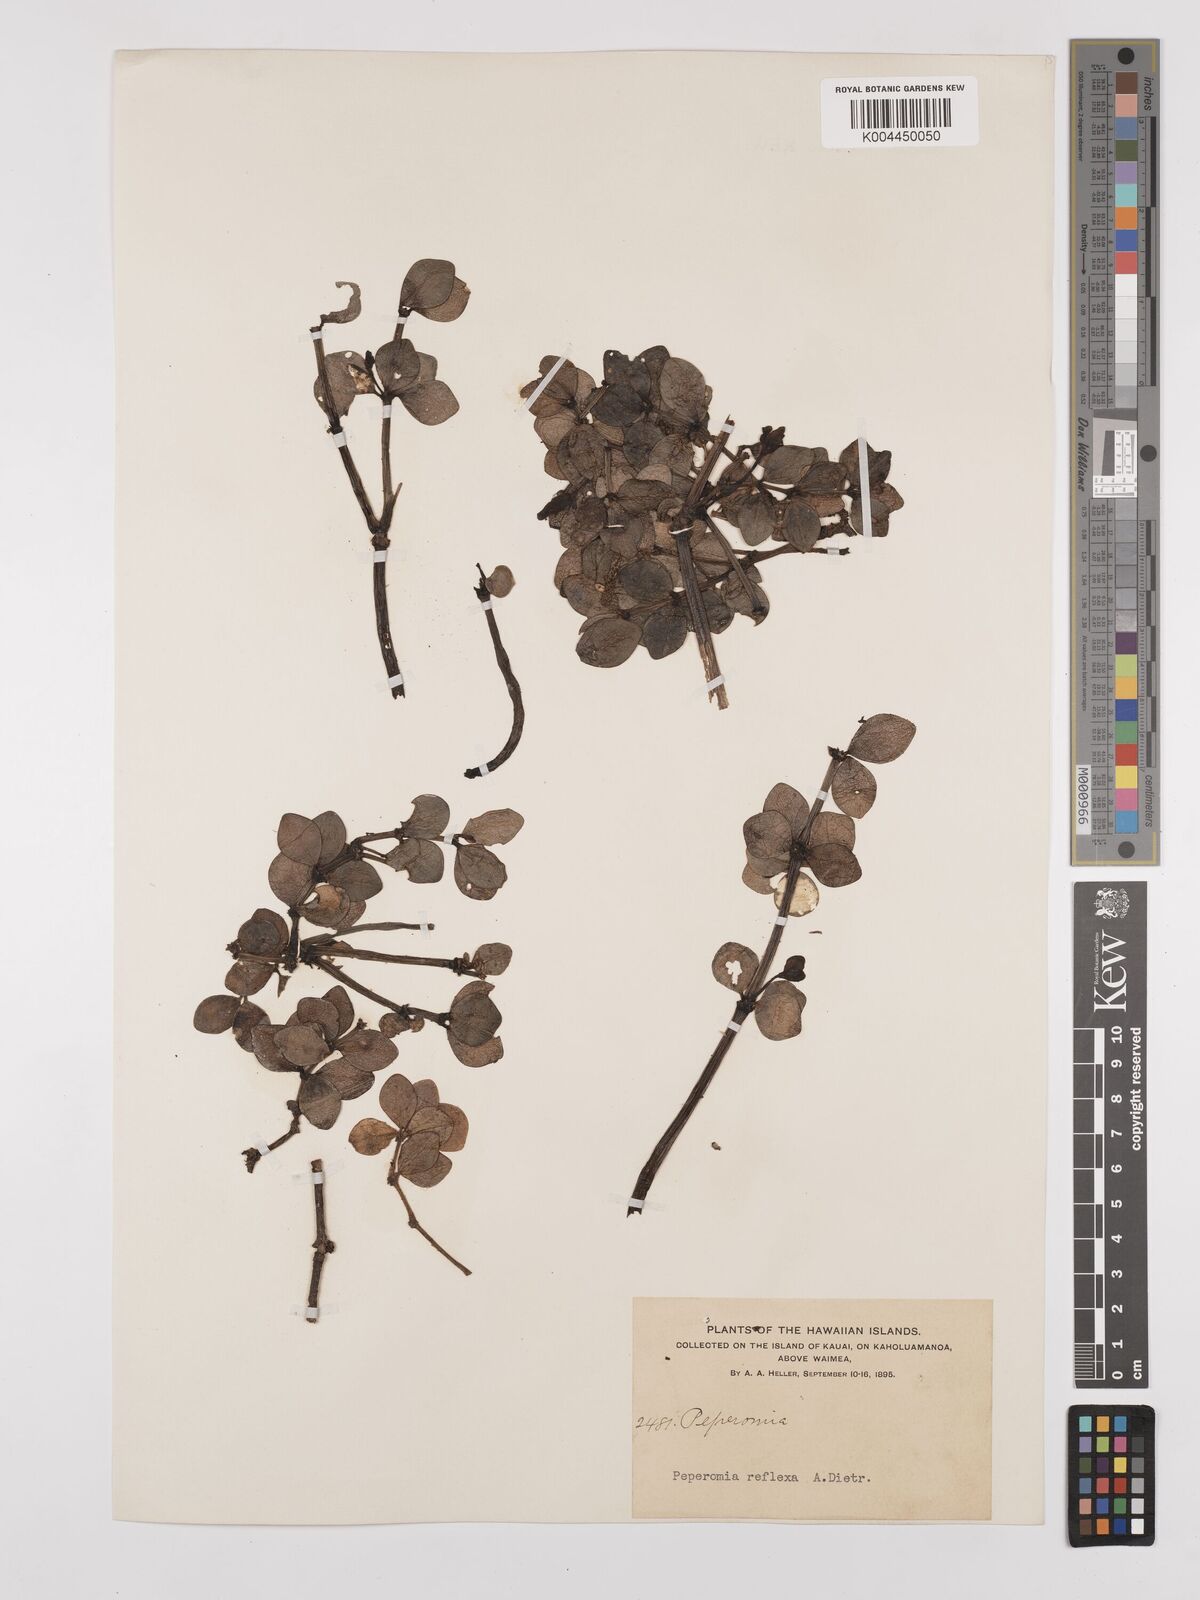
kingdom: Plantae
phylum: Tracheophyta
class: Magnoliopsida
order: Piperales
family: Piperaceae
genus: Peperomia
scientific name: Peperomia tetraphylla
